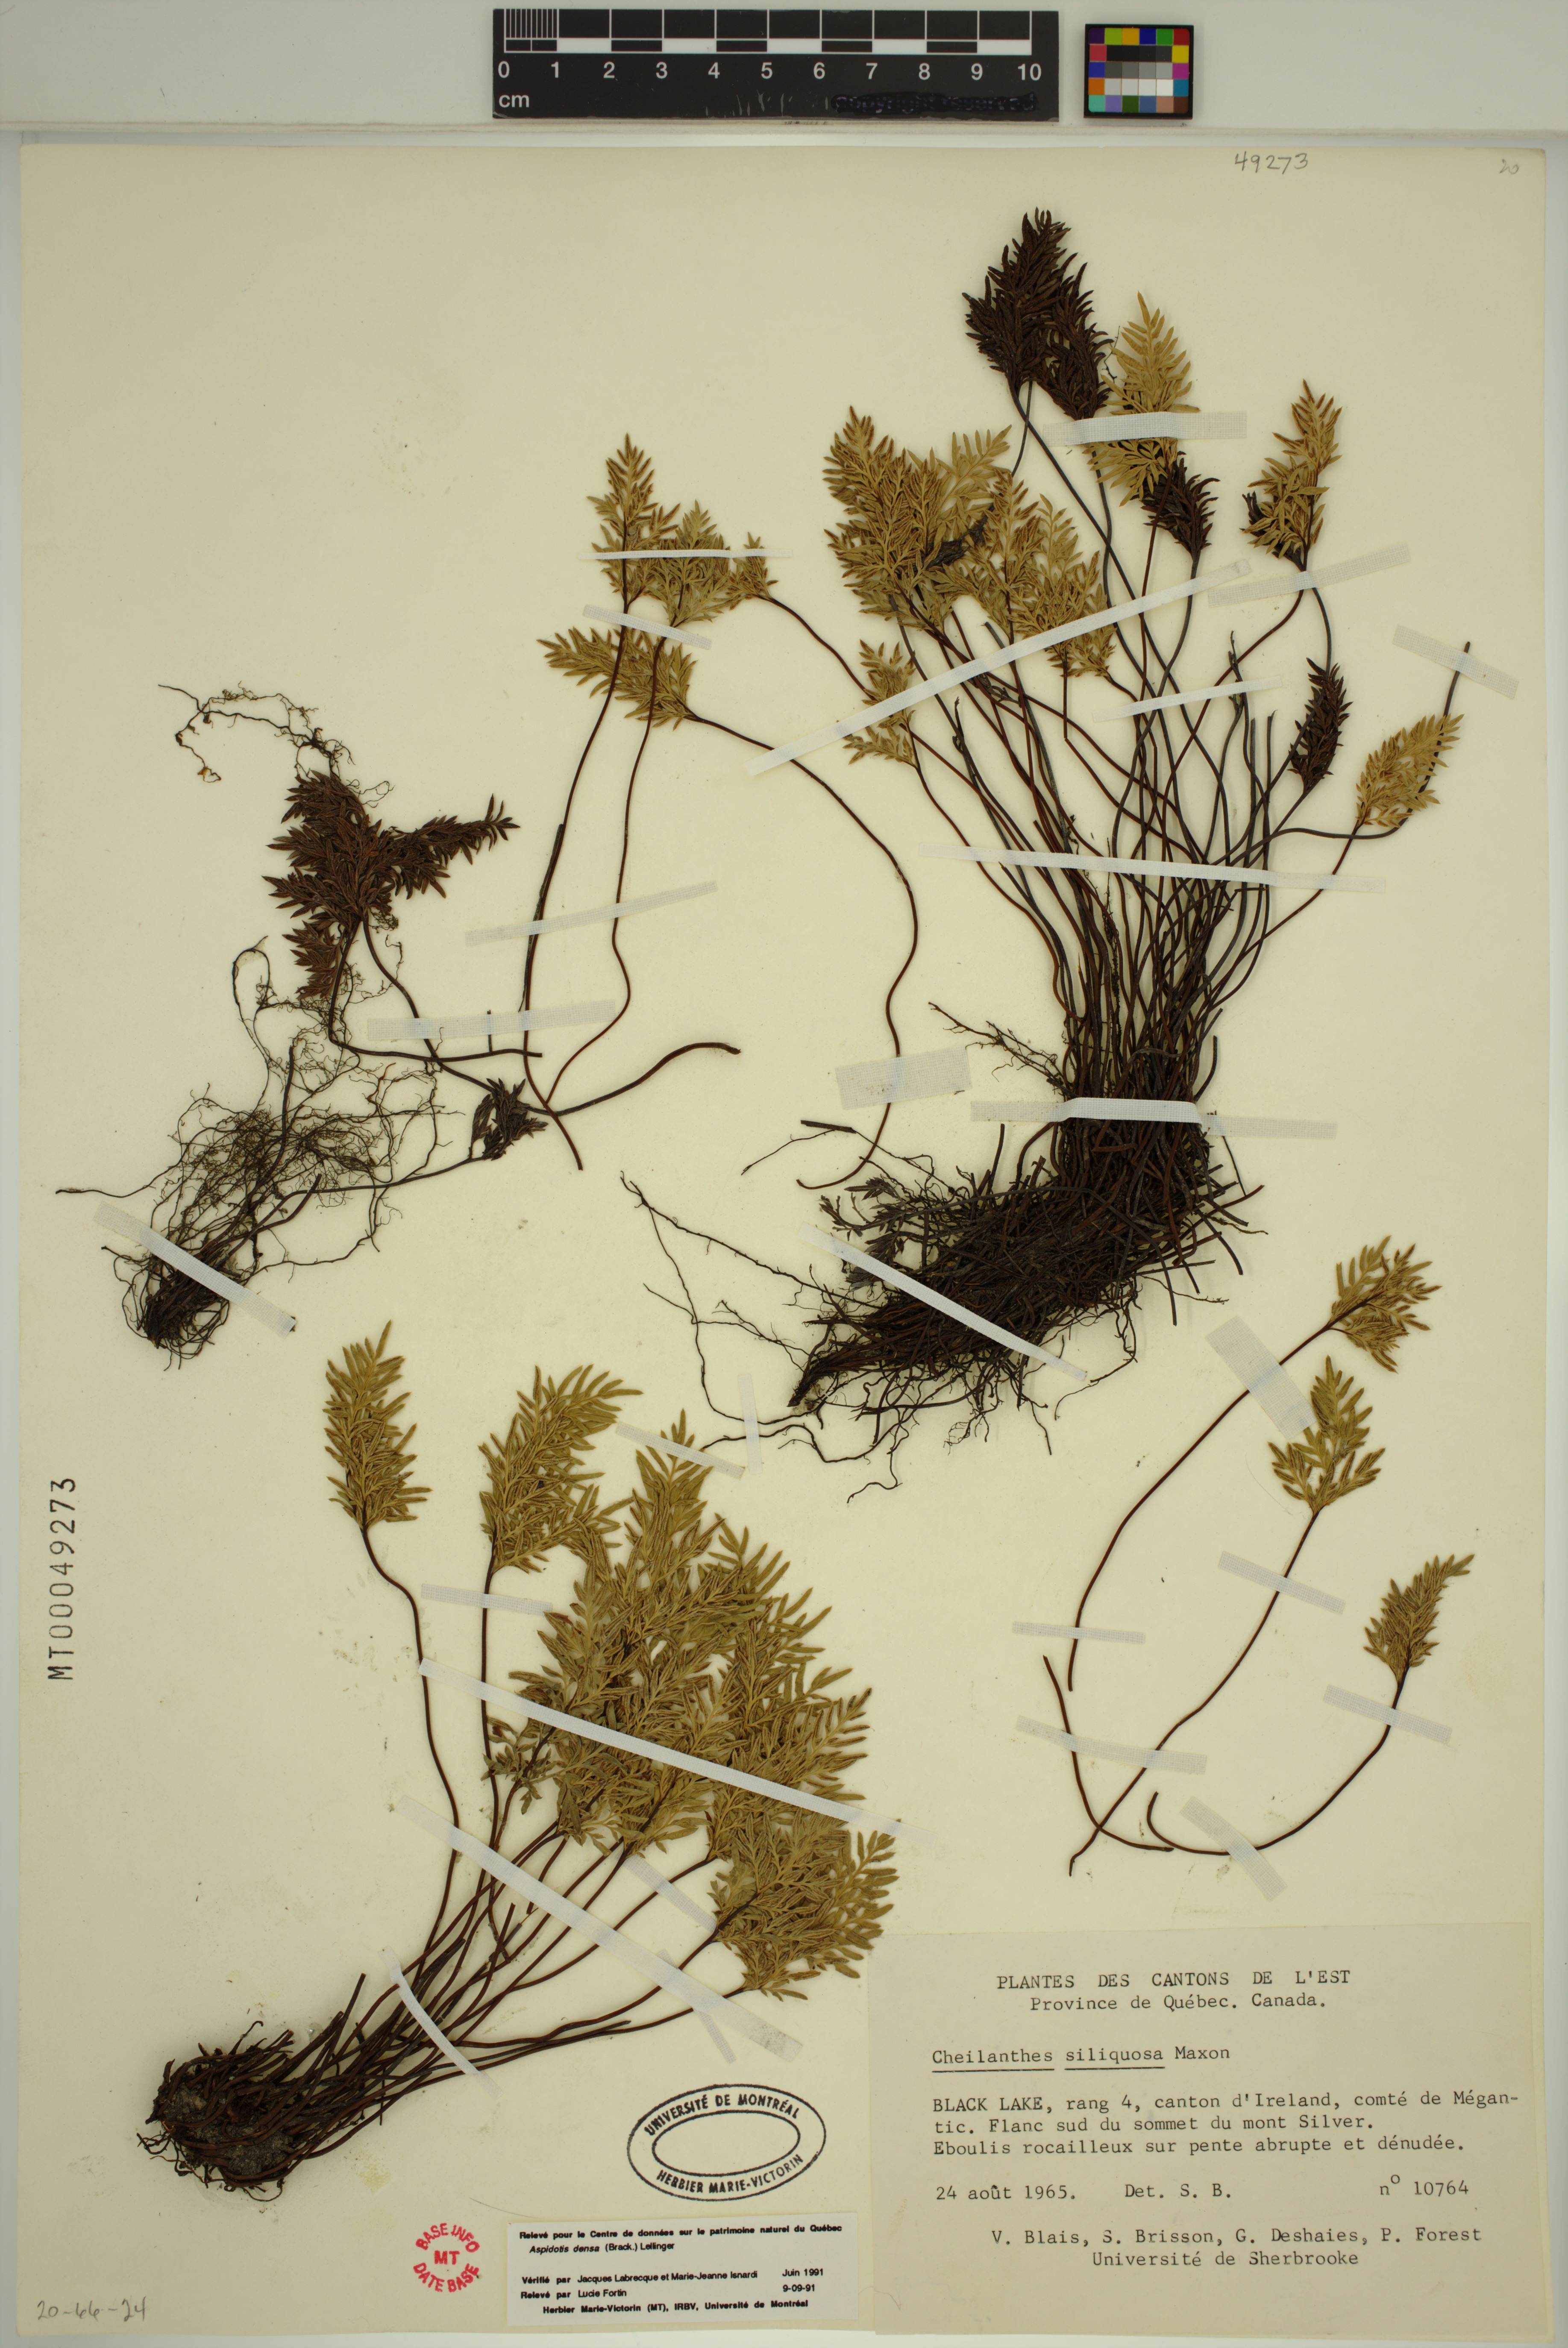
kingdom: Plantae
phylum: Tracheophyta
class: Polypodiopsida
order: Polypodiales
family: Pteridaceae
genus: Aspidotis
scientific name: Aspidotis densa
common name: Indian's dream
